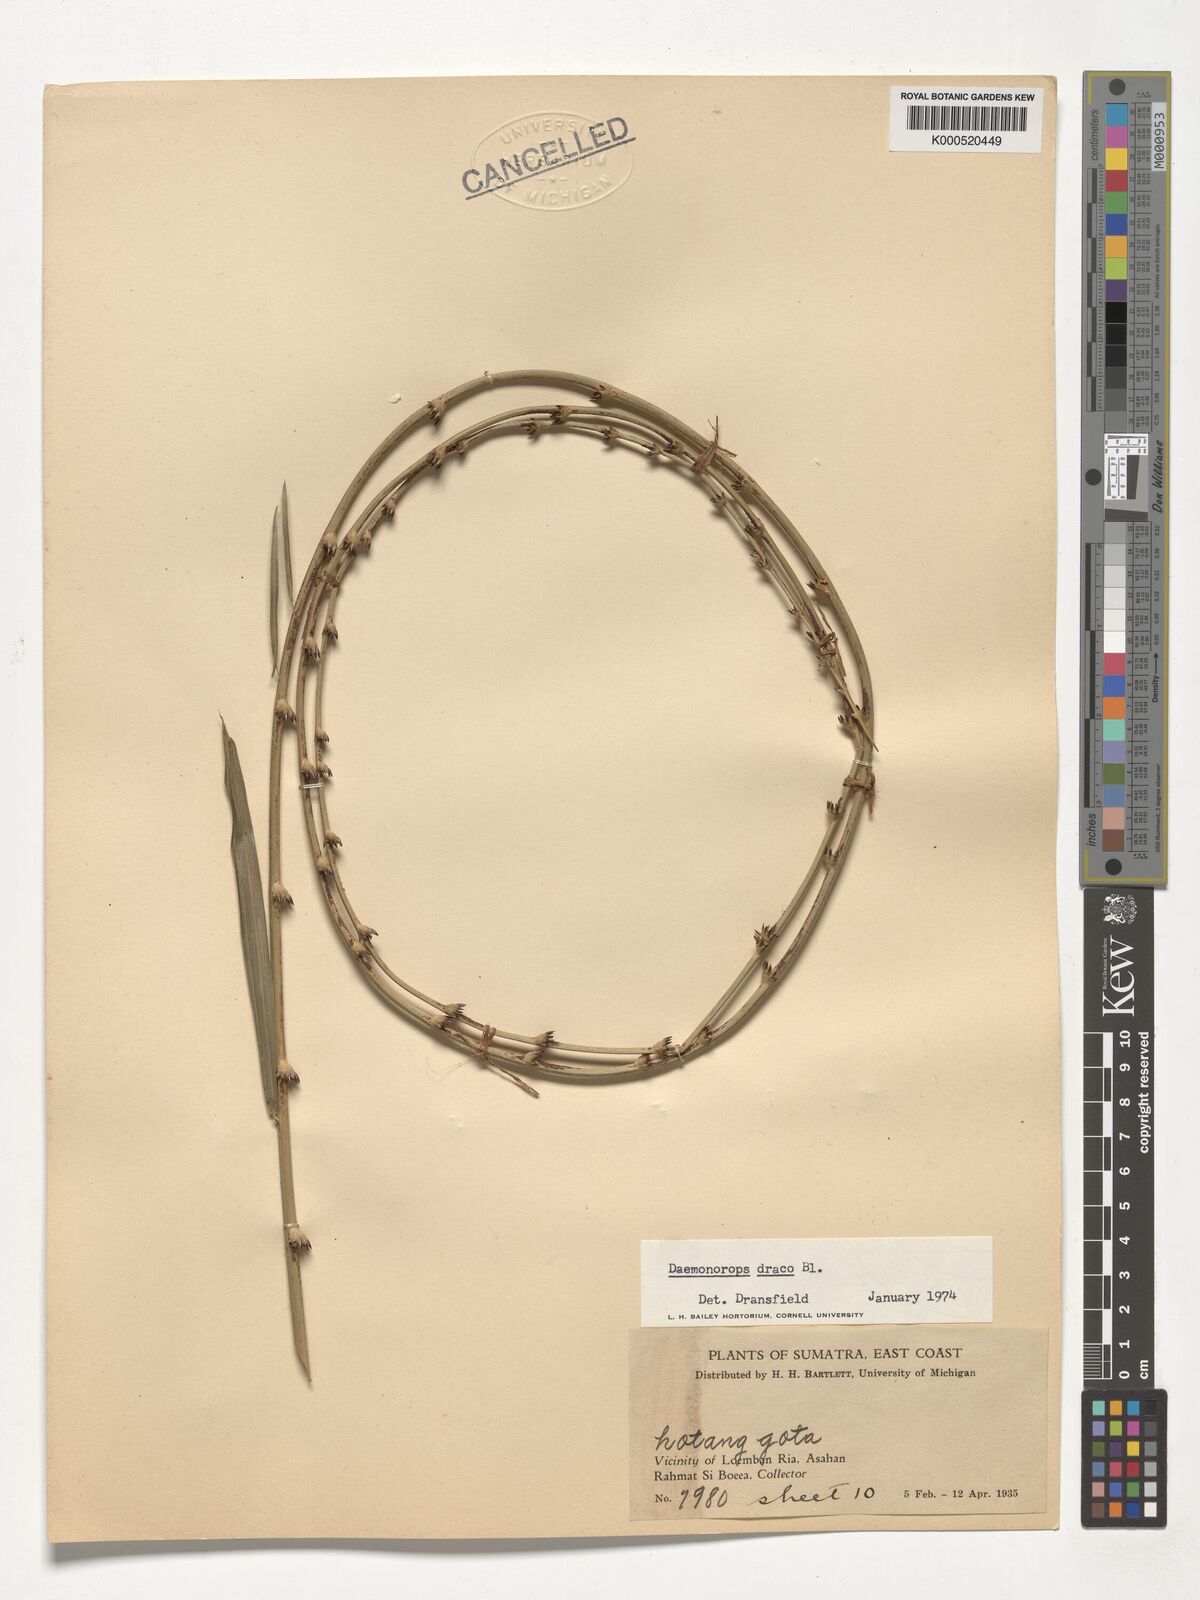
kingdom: Plantae
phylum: Tracheophyta
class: Liliopsida
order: Arecales
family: Arecaceae
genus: Calamus
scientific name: Calamus draco
